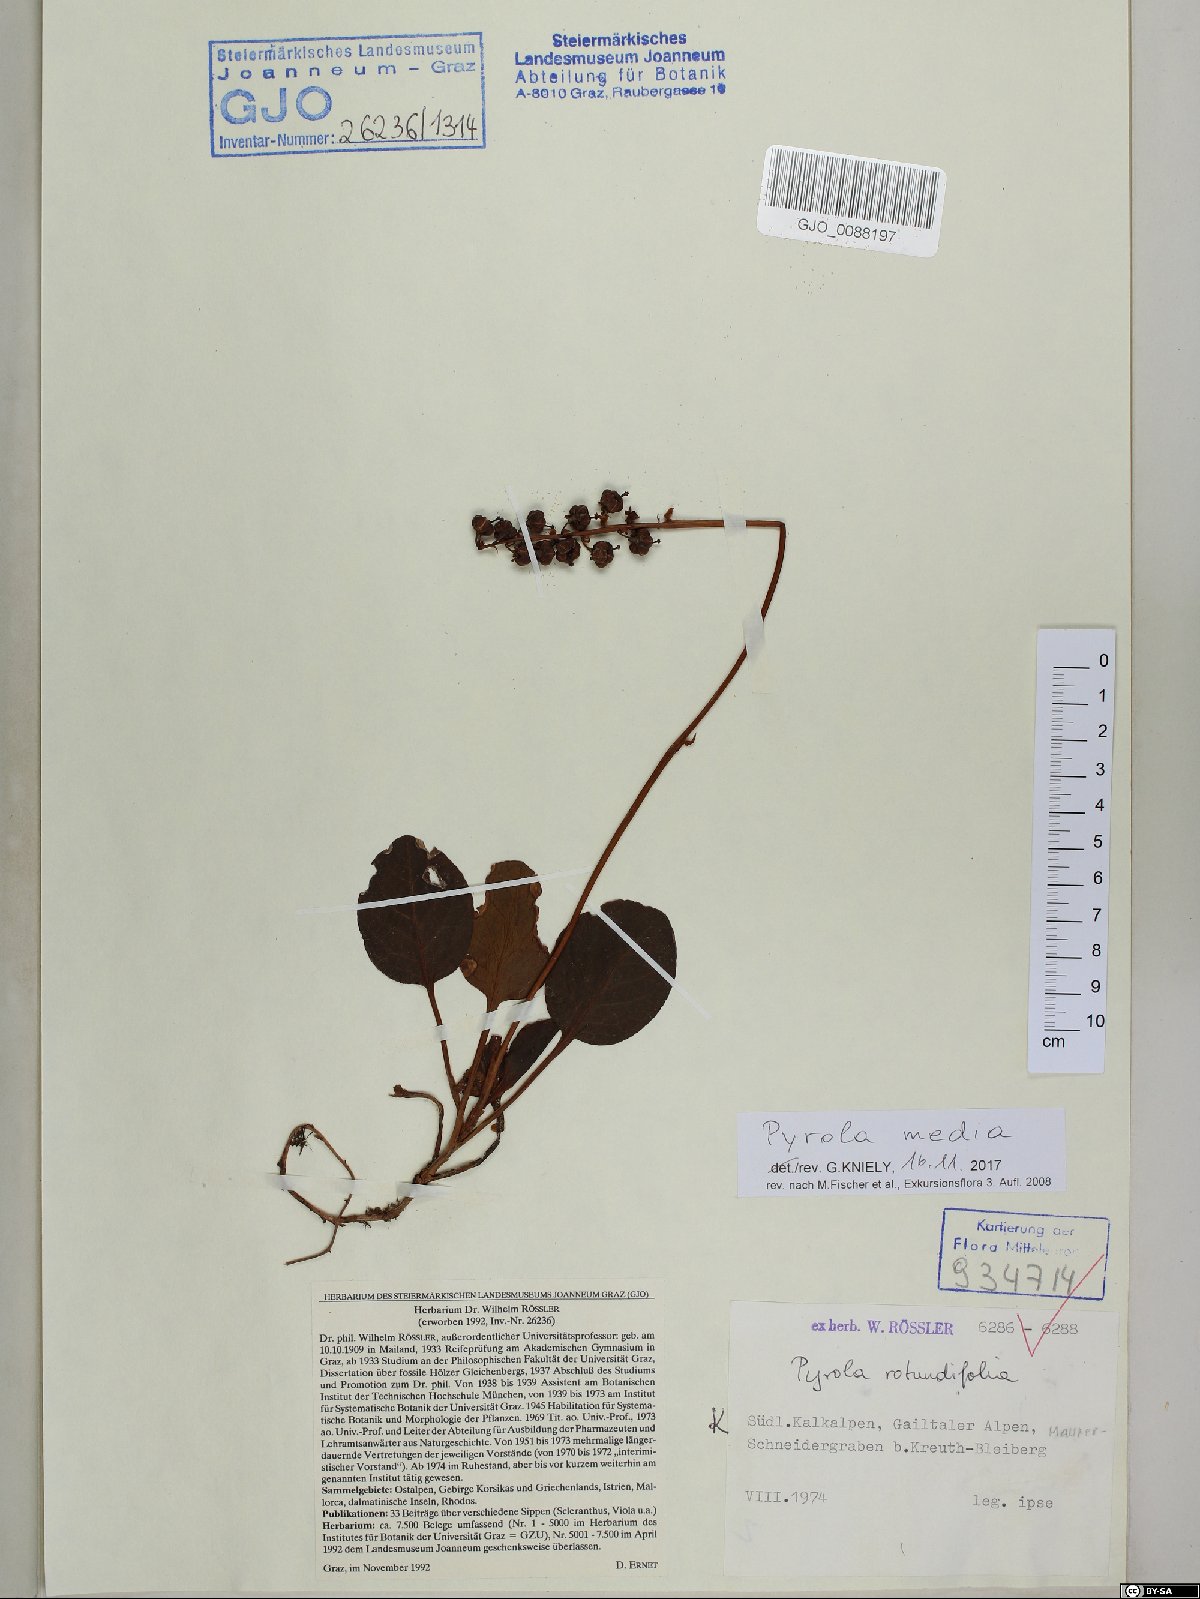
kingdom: Plantae
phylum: Tracheophyta
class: Magnoliopsida
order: Ericales
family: Ericaceae
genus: Pyrola
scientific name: Pyrola media
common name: Intermediate wintergreen
